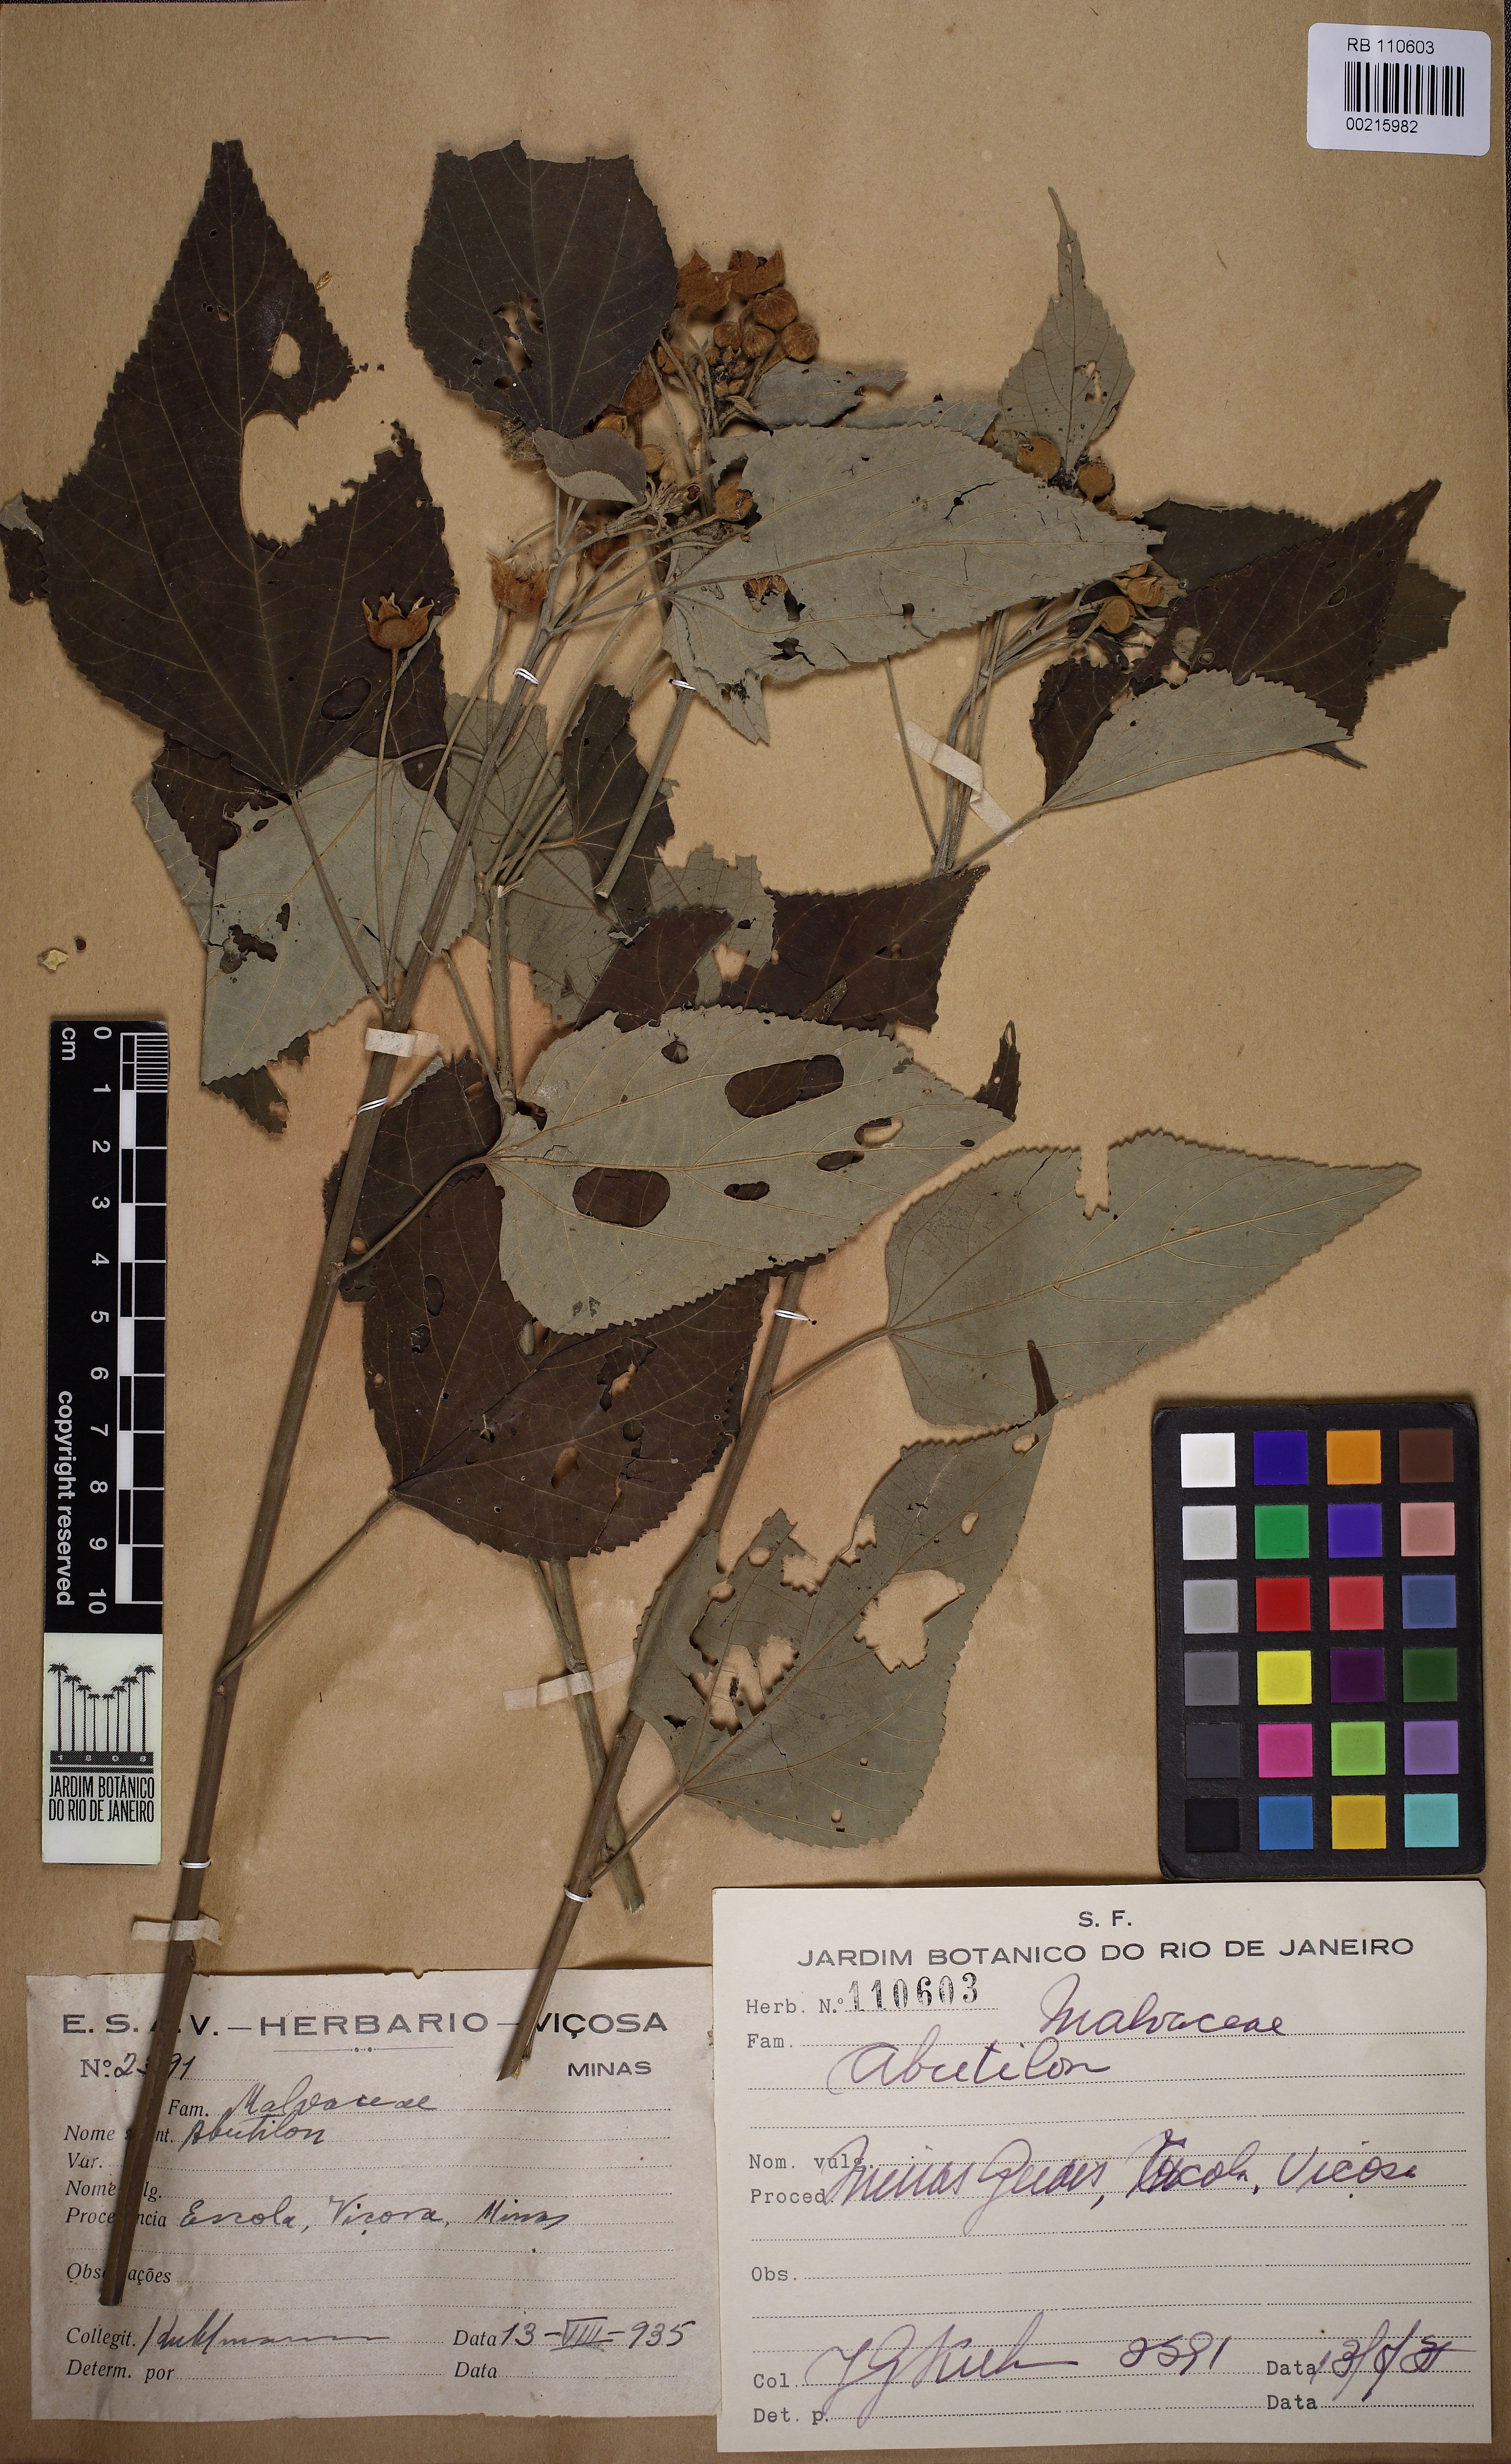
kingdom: Plantae
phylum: Tracheophyta
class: Magnoliopsida
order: Malvales
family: Malvaceae
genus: Abutilon
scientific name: Abutilon
